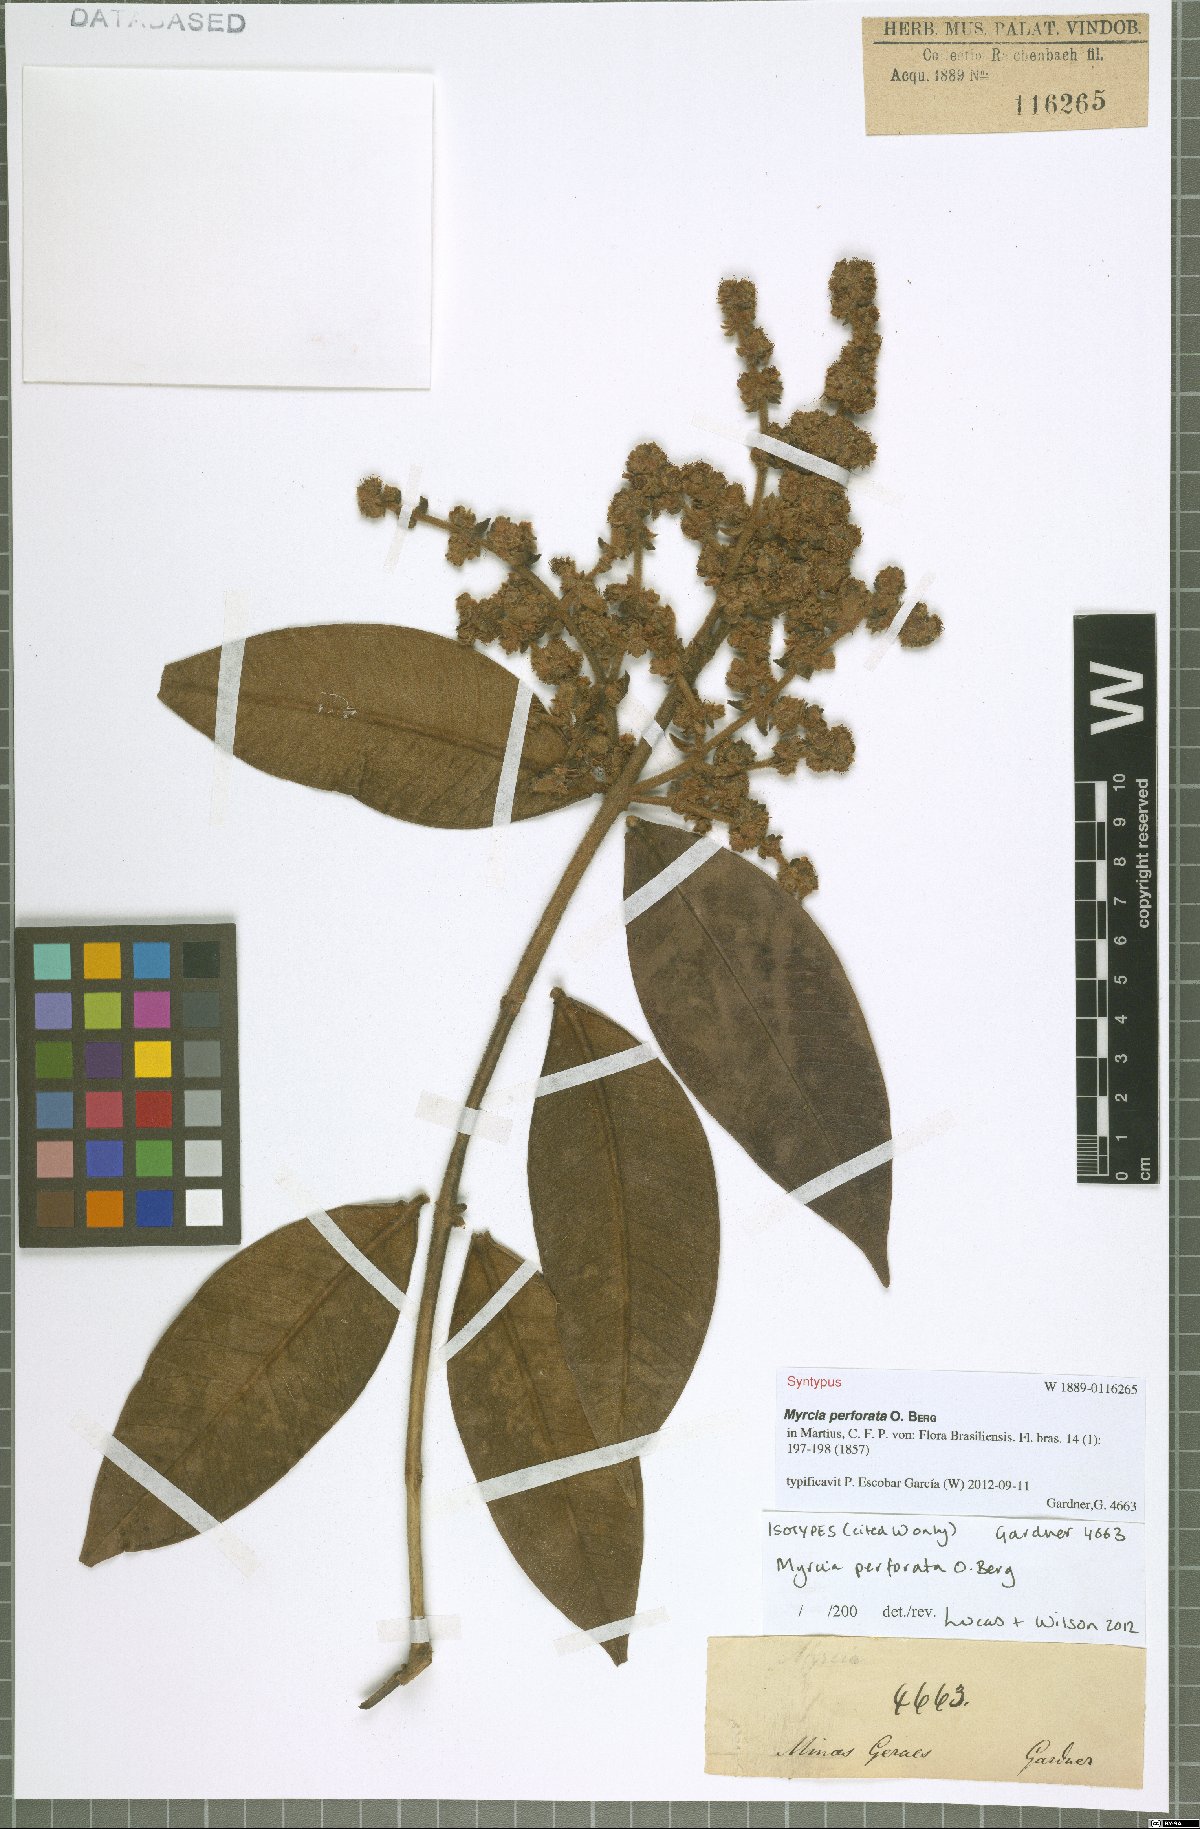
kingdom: Plantae
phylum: Tracheophyta
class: Magnoliopsida
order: Myrtales
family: Myrtaceae
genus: Myrcia
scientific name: Myrcia perforata
